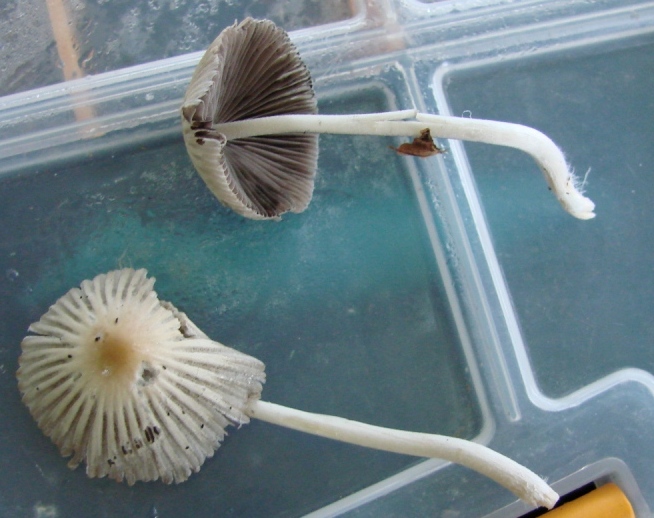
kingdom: Fungi
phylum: Basidiomycota
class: Agaricomycetes
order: Agaricales
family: Psathyrellaceae
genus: Tulosesus
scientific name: Tulosesus impatiens
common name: furet blækhat
